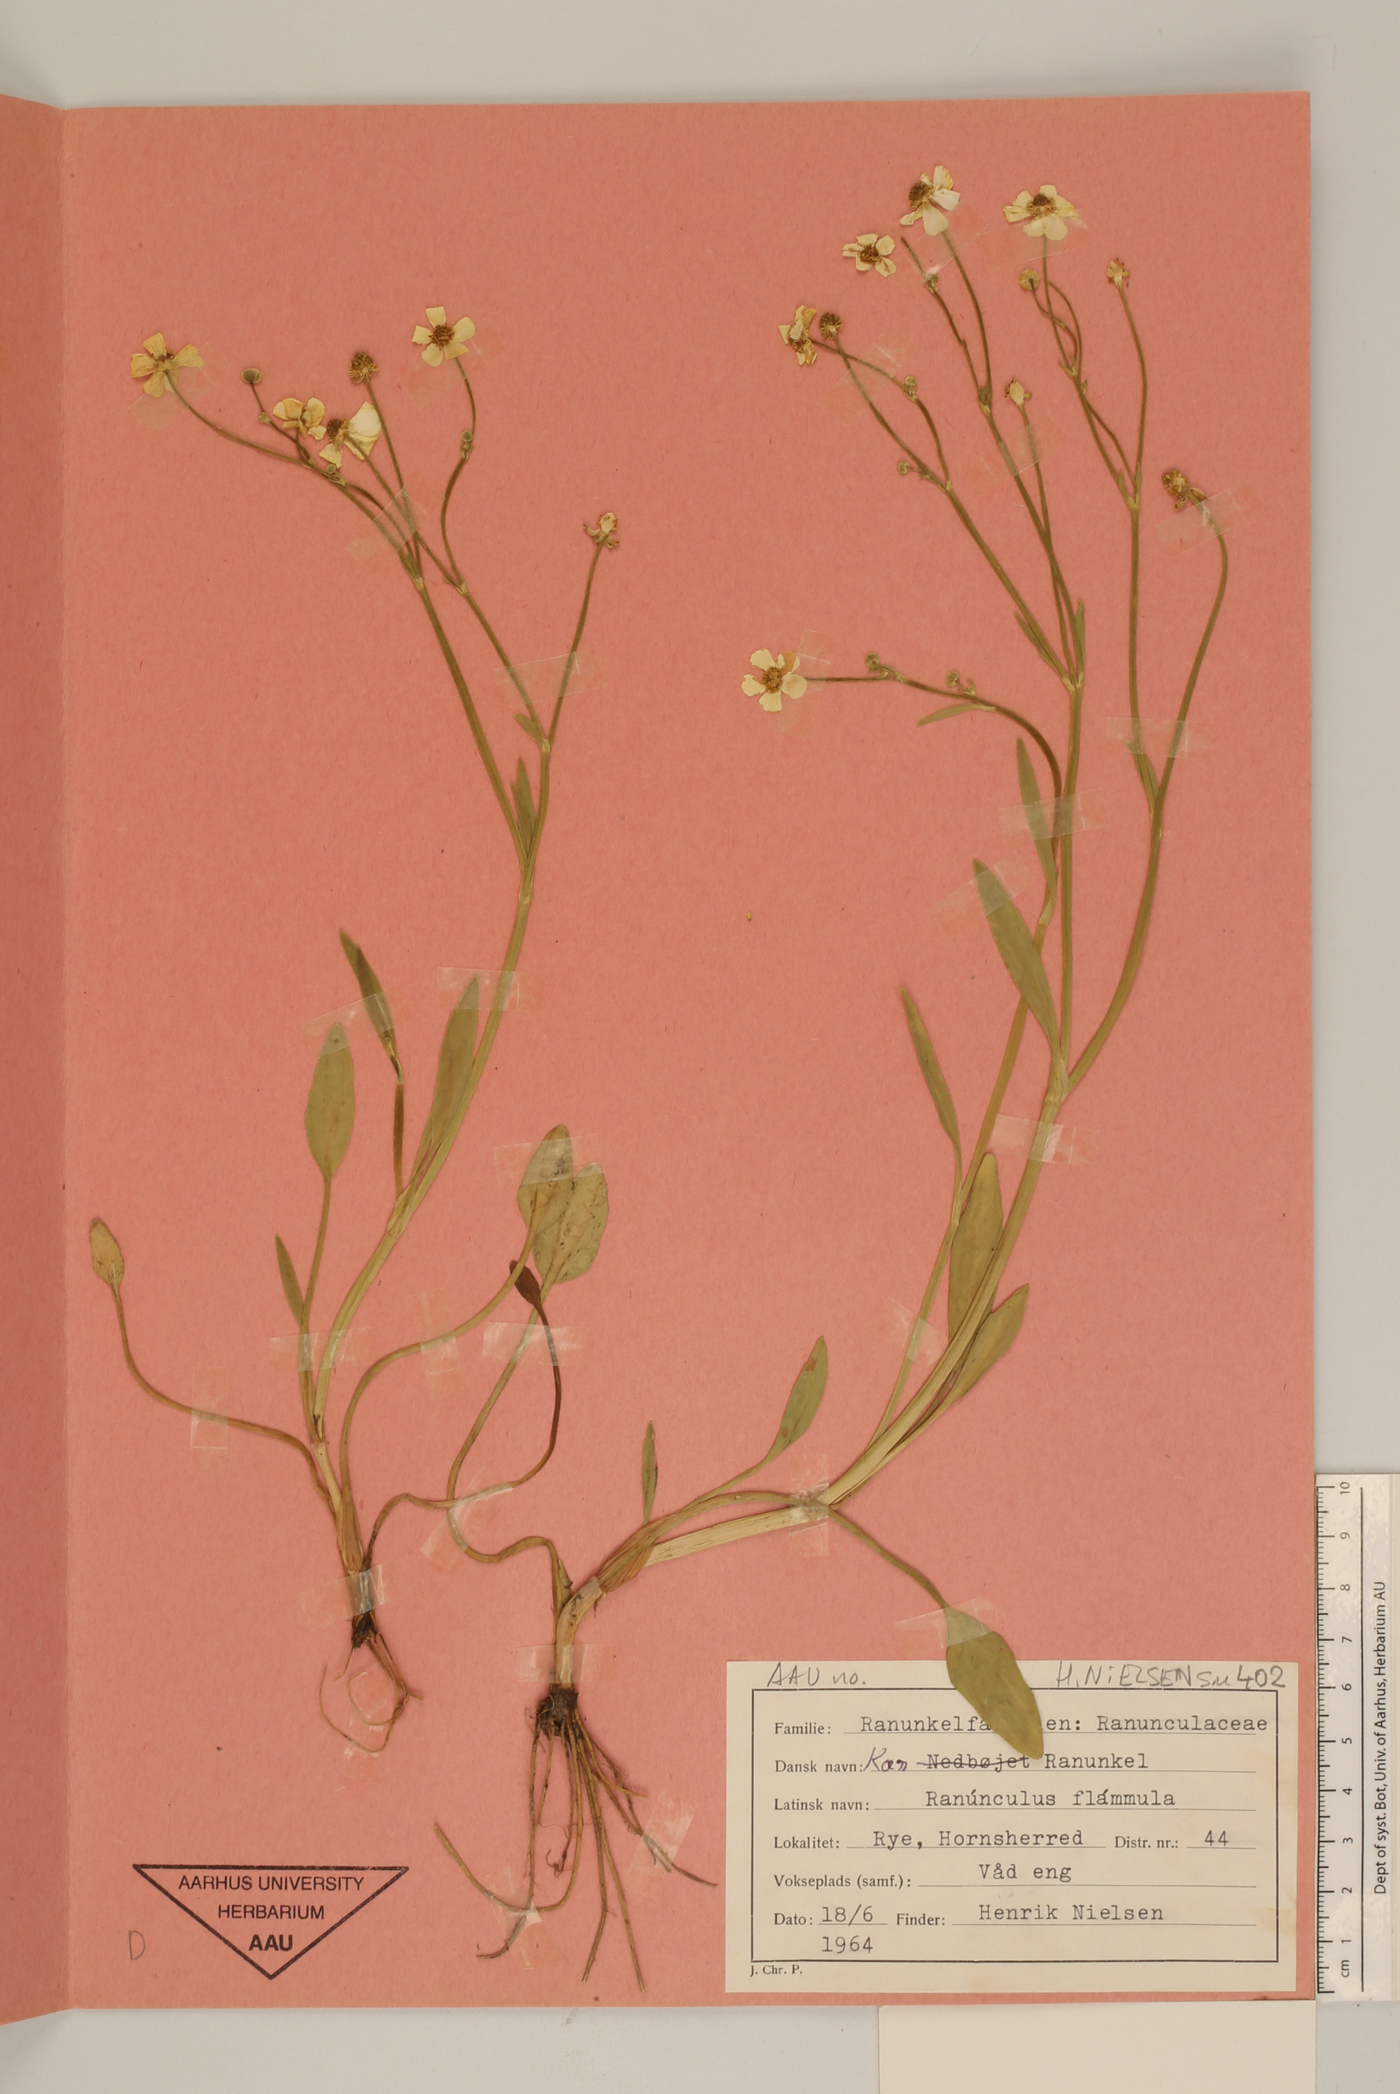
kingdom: Plantae
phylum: Tracheophyta
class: Magnoliopsida
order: Ranunculales
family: Ranunculaceae
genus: Ranunculus
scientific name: Ranunculus flammula
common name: Lesser spearwort
